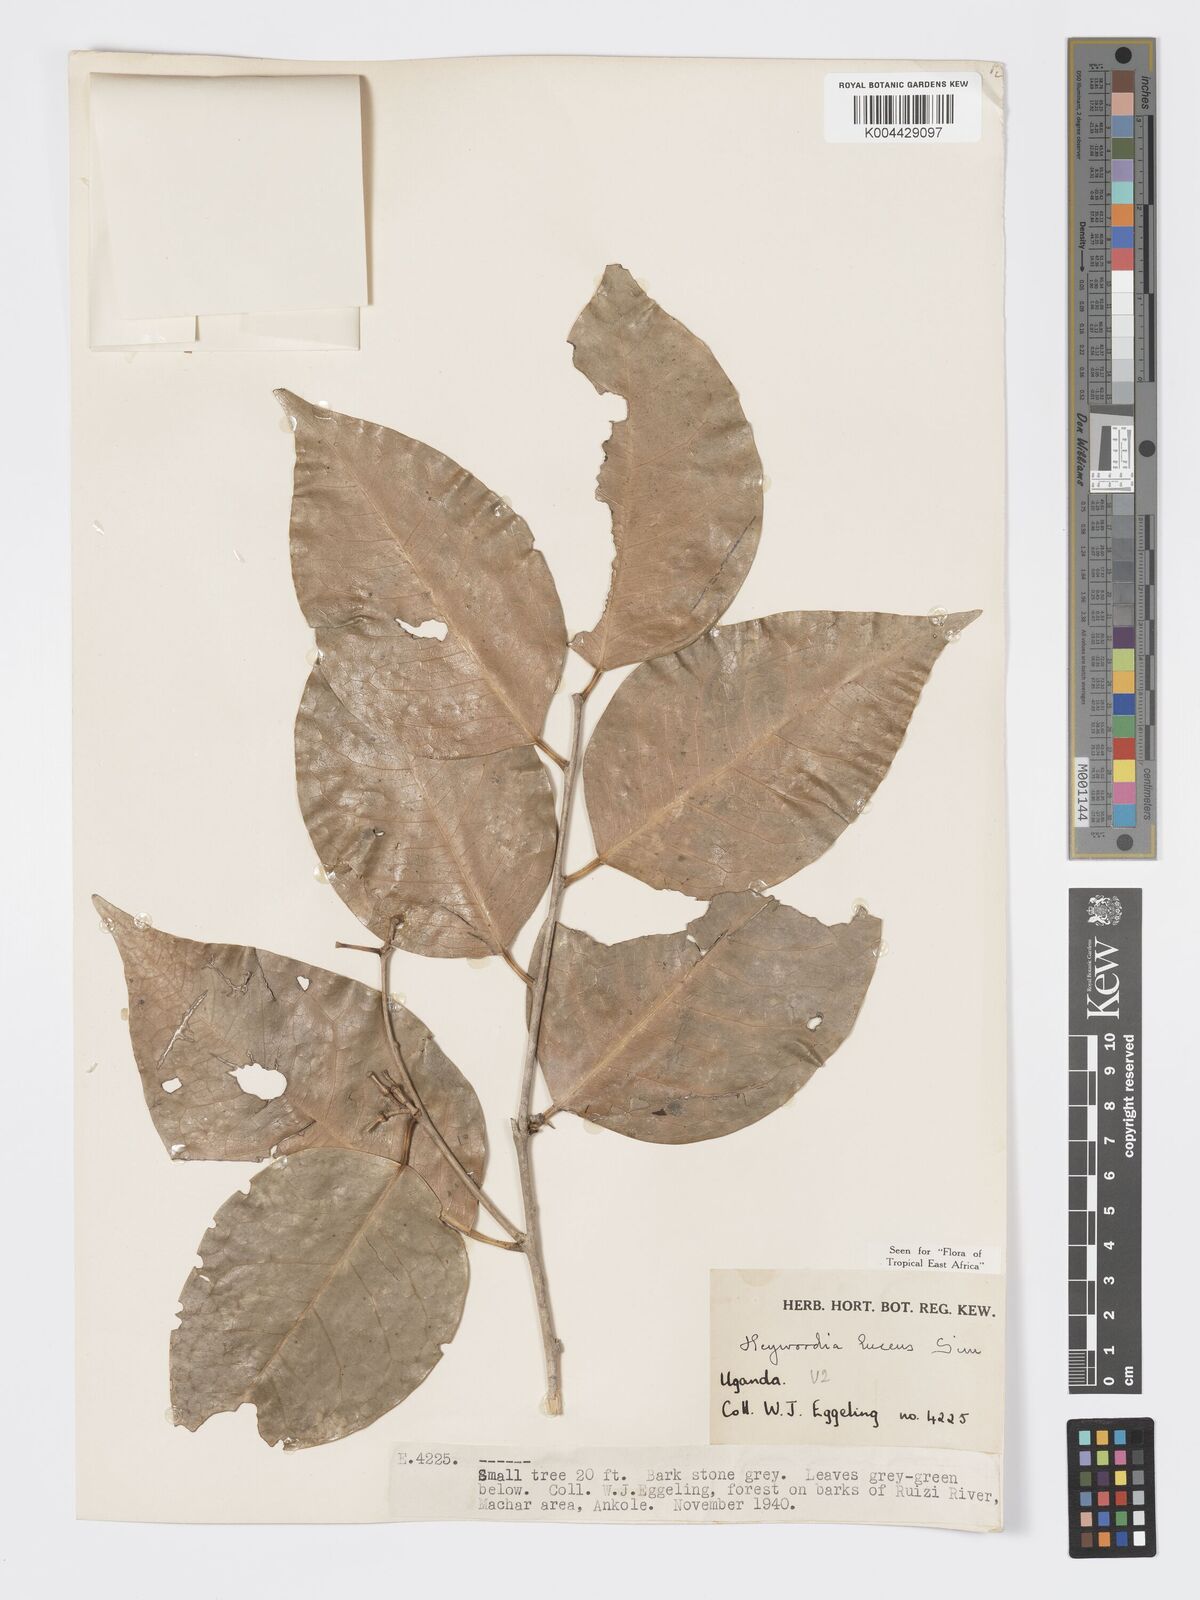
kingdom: Plantae
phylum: Tracheophyta
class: Magnoliopsida
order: Malpighiales
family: Phyllanthaceae
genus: Heywoodia
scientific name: Heywoodia lucens
